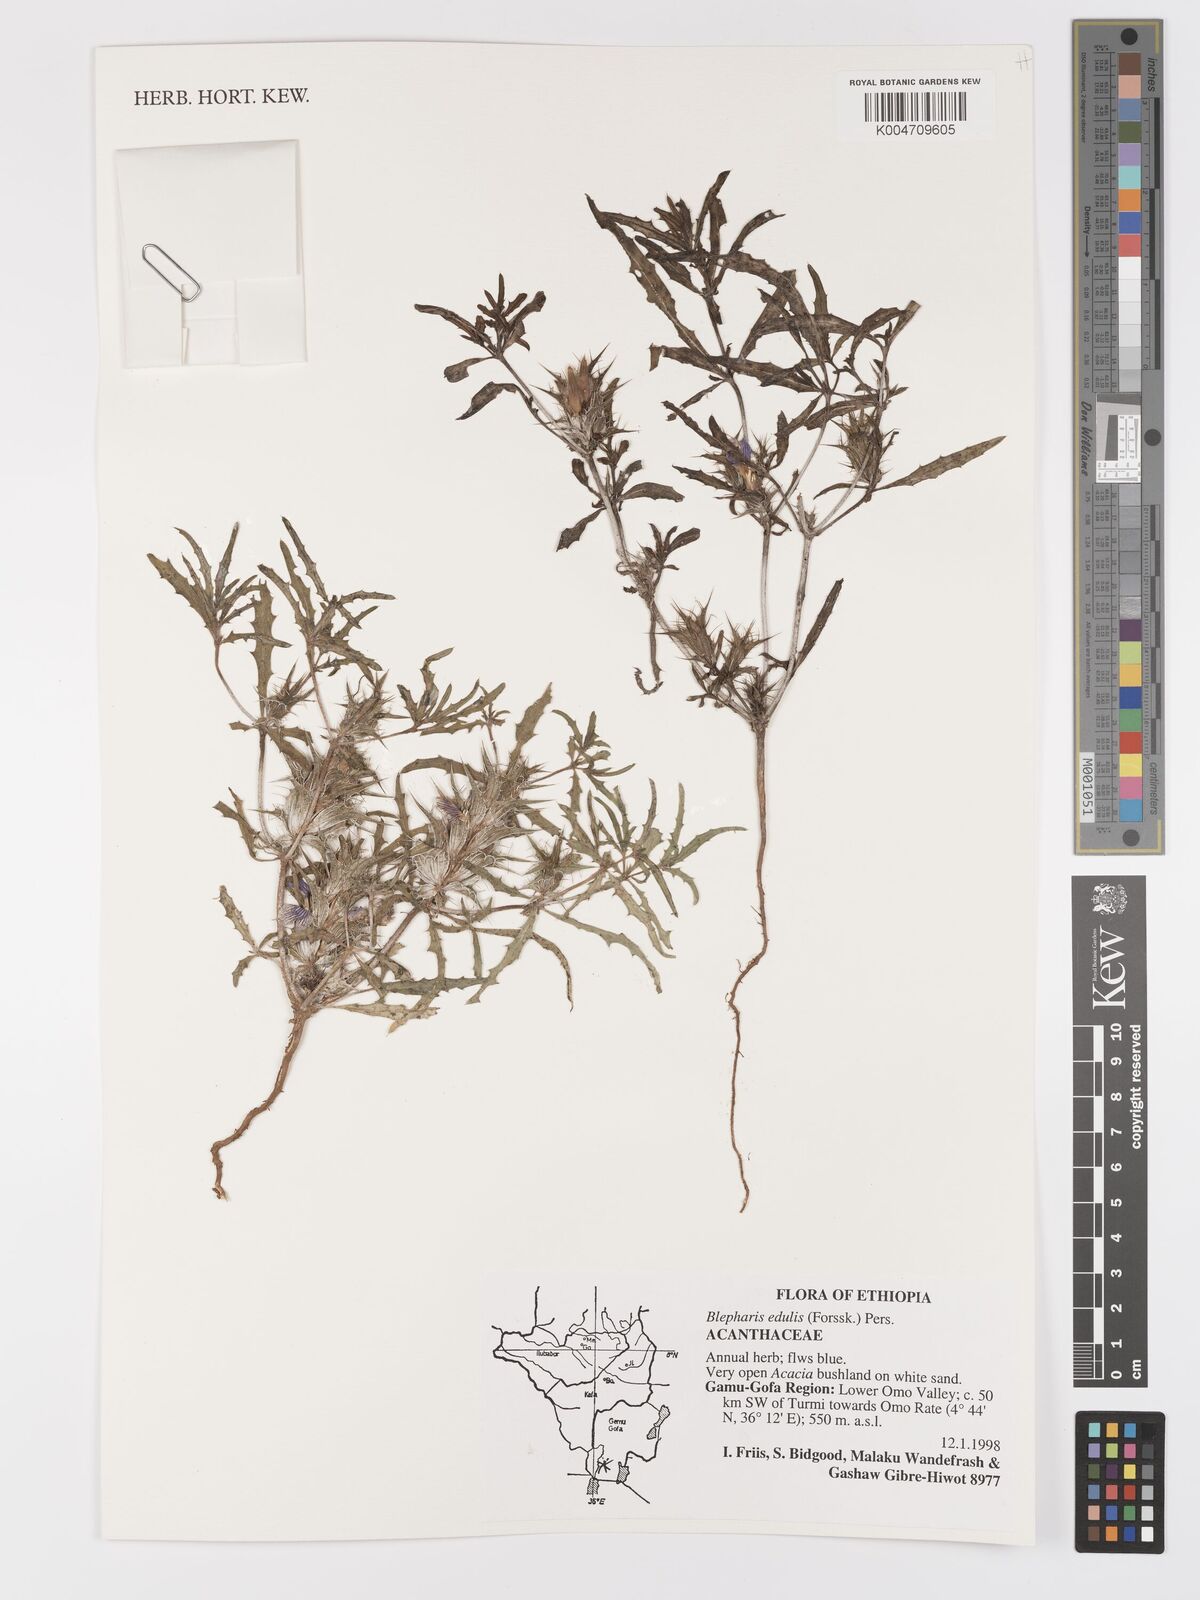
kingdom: Plantae
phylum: Tracheophyta
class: Magnoliopsida
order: Lamiales
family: Acanthaceae
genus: Blepharis
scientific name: Blepharis edulis
